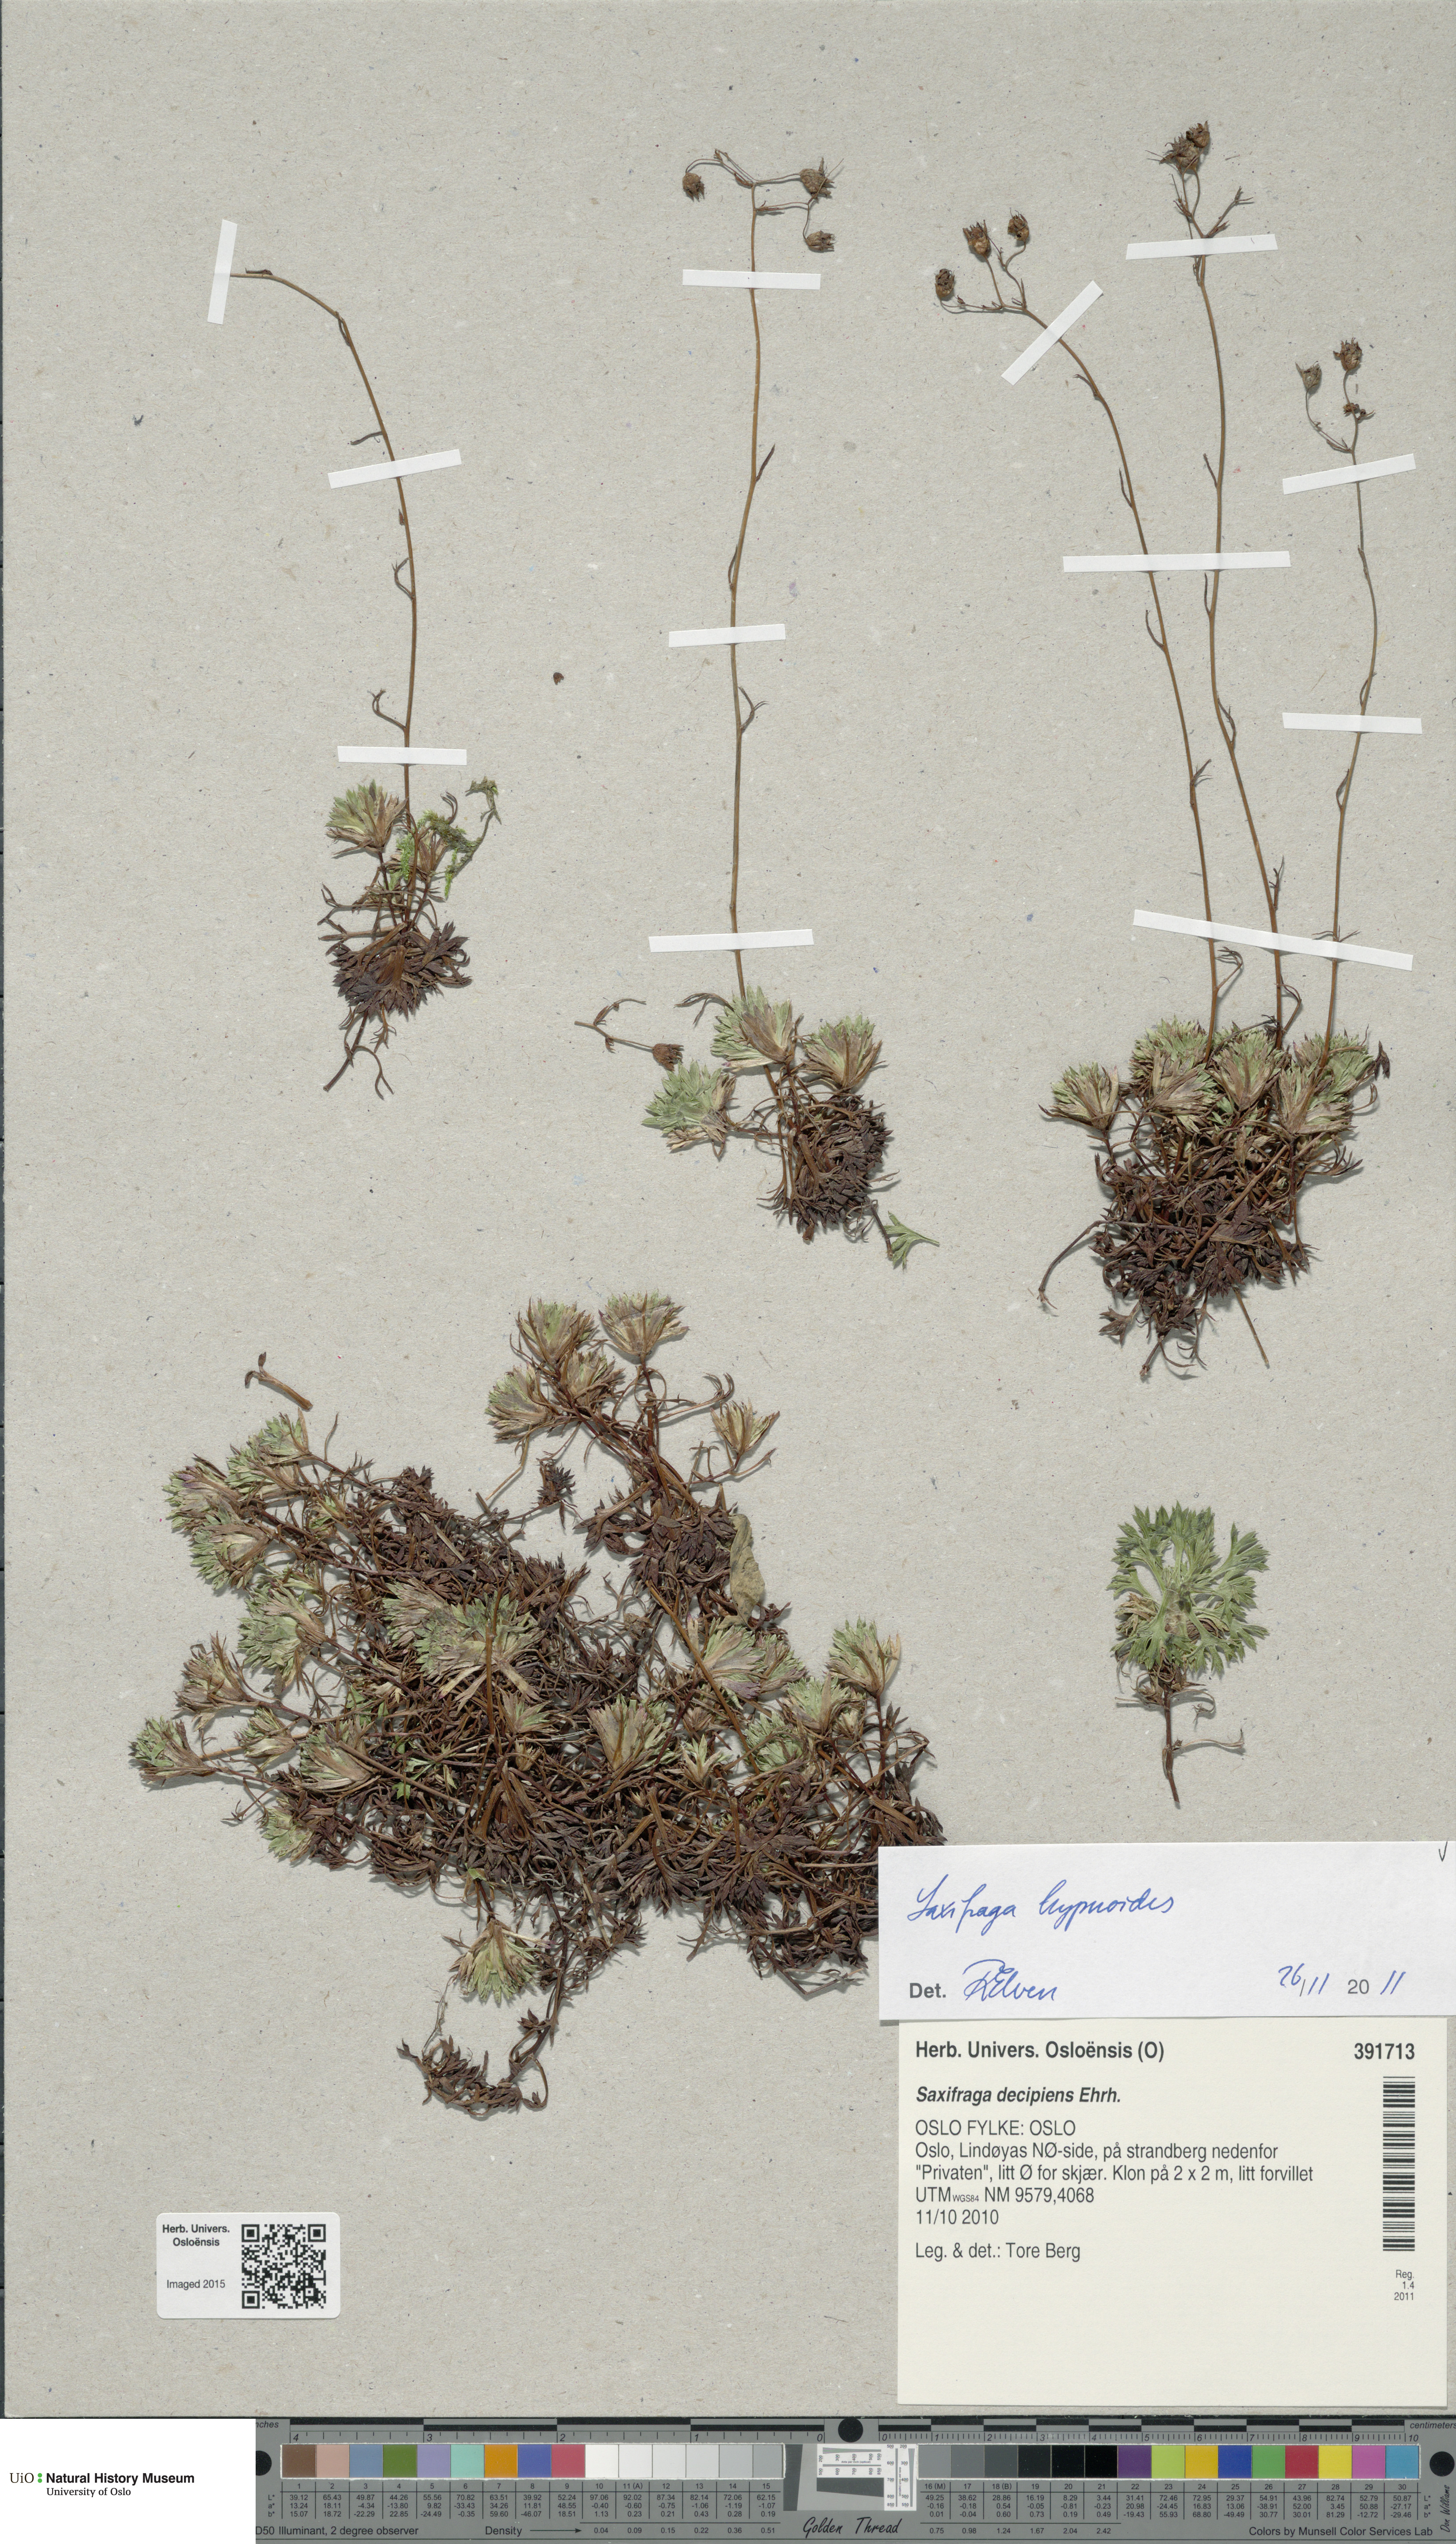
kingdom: Plantae
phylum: Tracheophyta
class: Magnoliopsida
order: Saxifragales
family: Saxifragaceae
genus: Saxifraga
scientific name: Saxifraga hypnoides
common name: Mossy saxifrage
